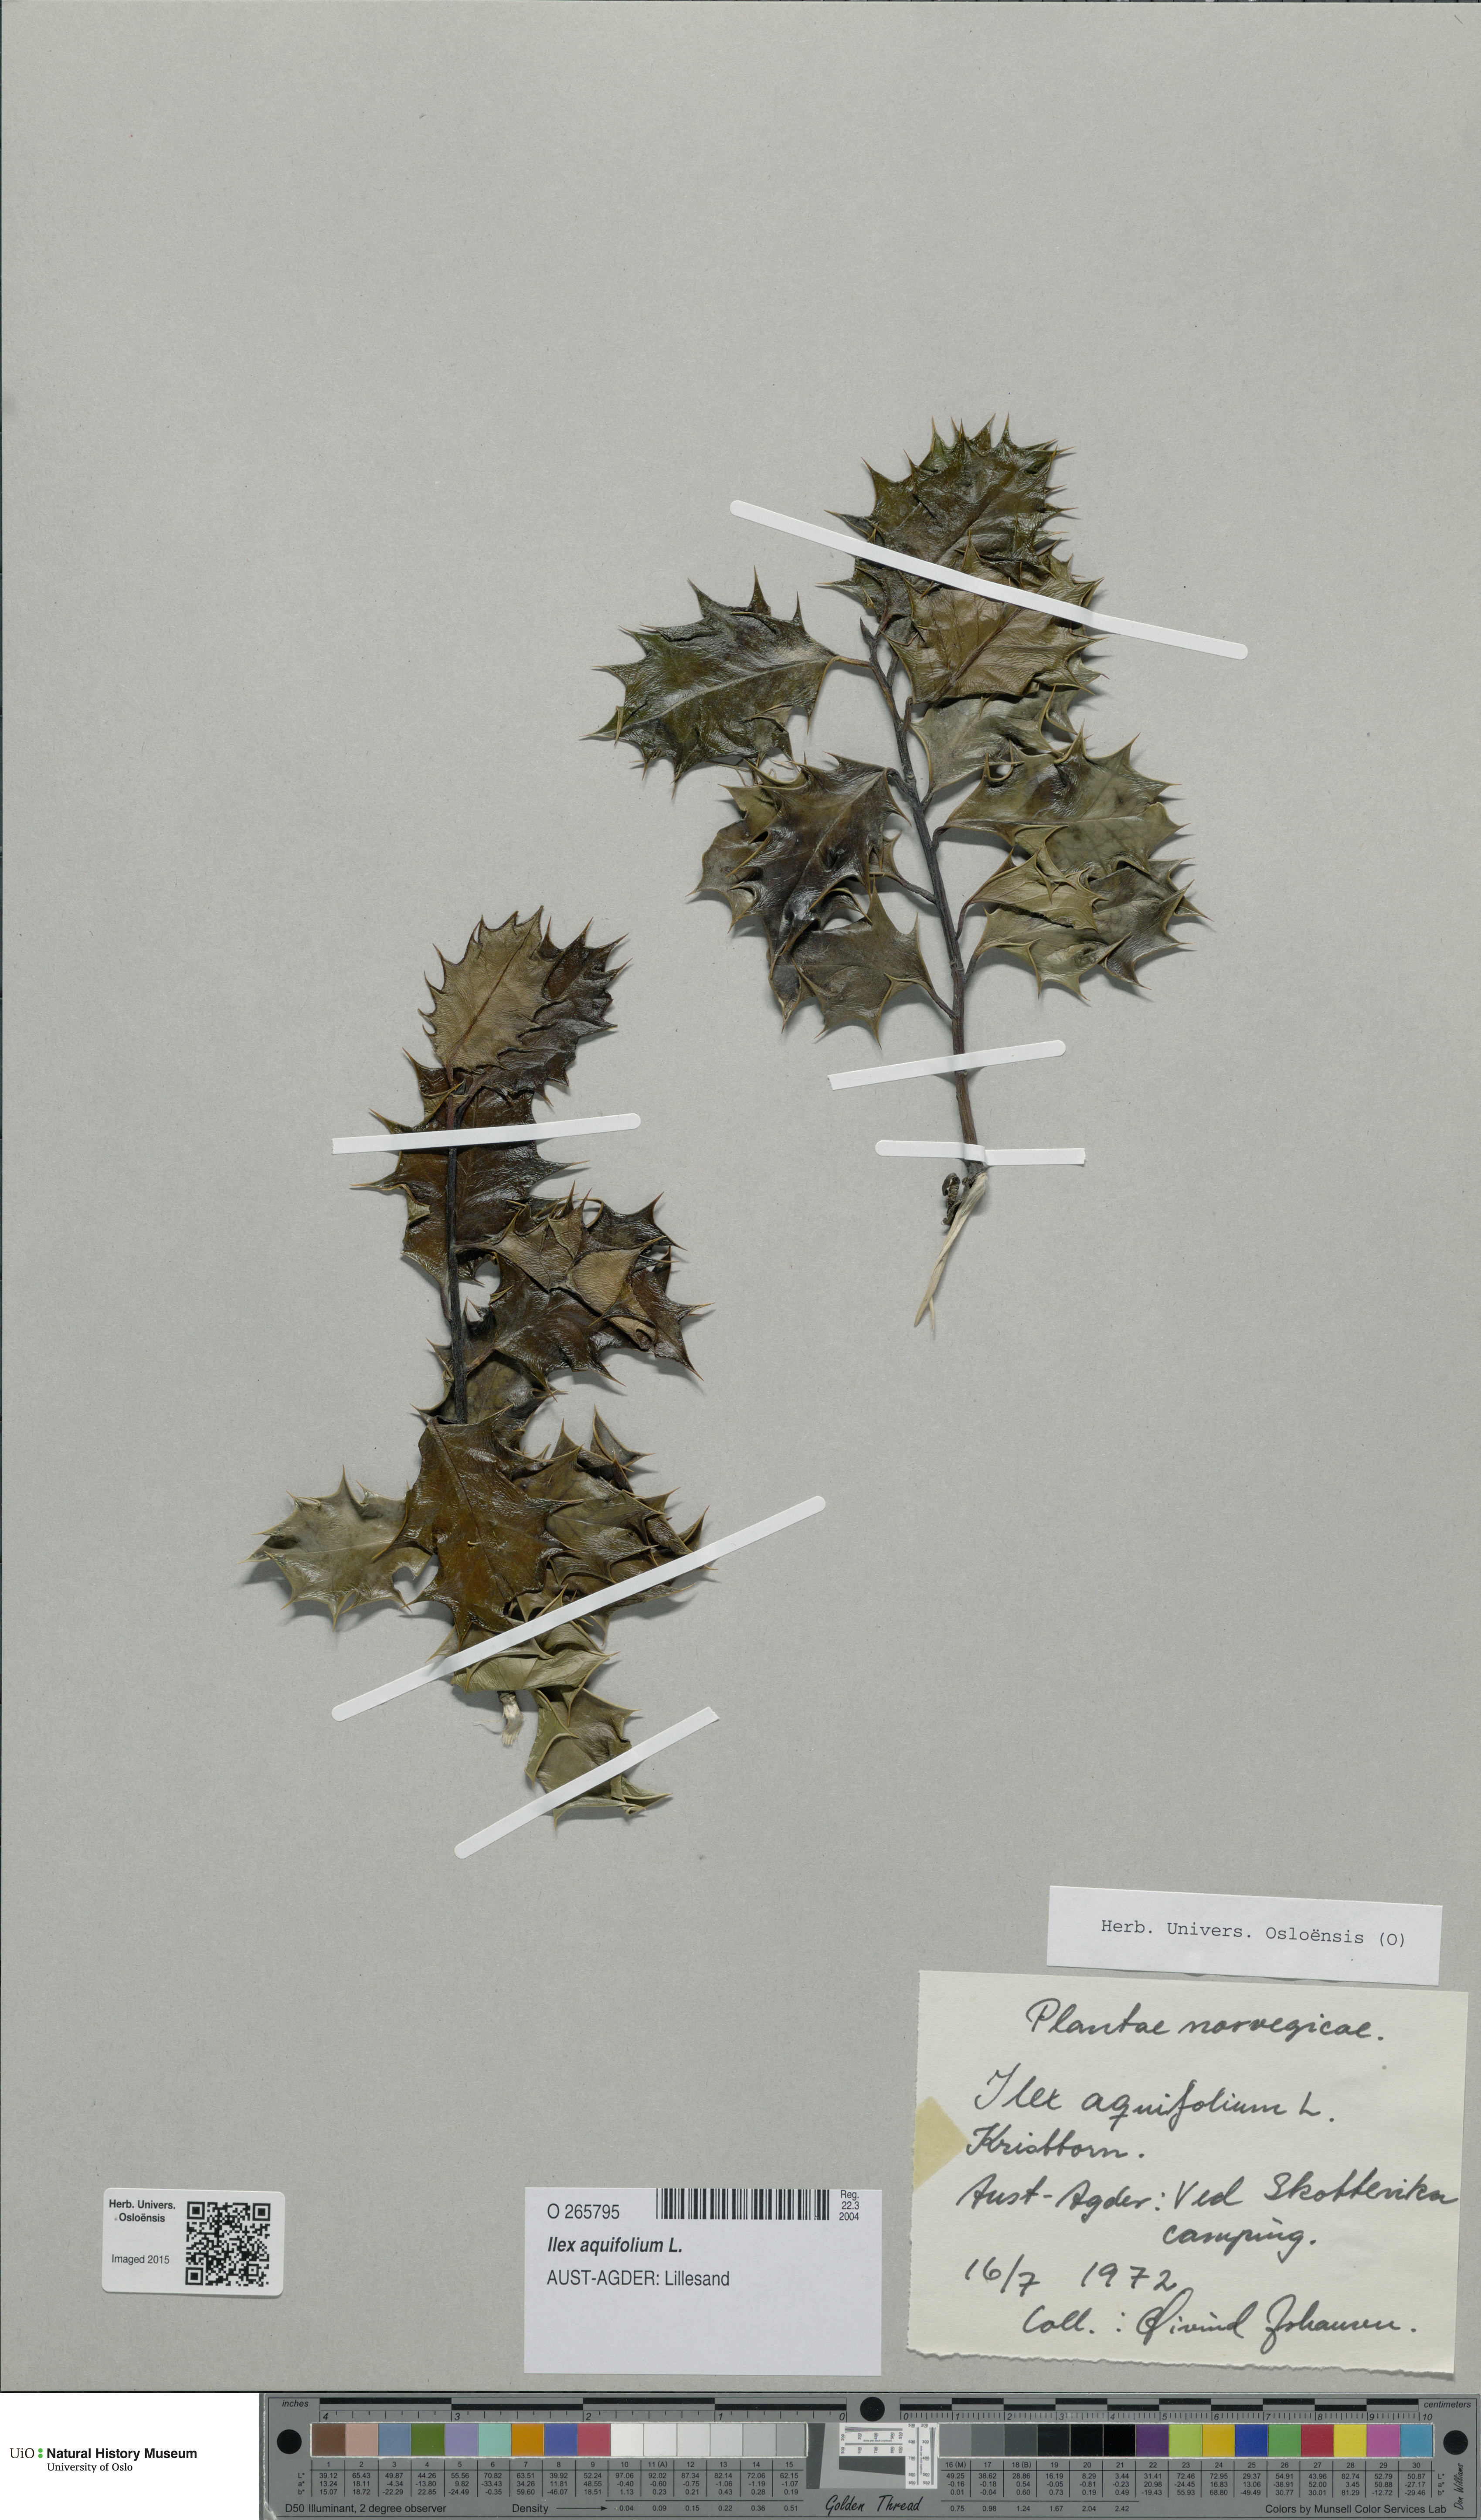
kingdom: Plantae
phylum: Tracheophyta
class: Magnoliopsida
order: Aquifoliales
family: Aquifoliaceae
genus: Ilex
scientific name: Ilex aquifolium
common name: English holly
